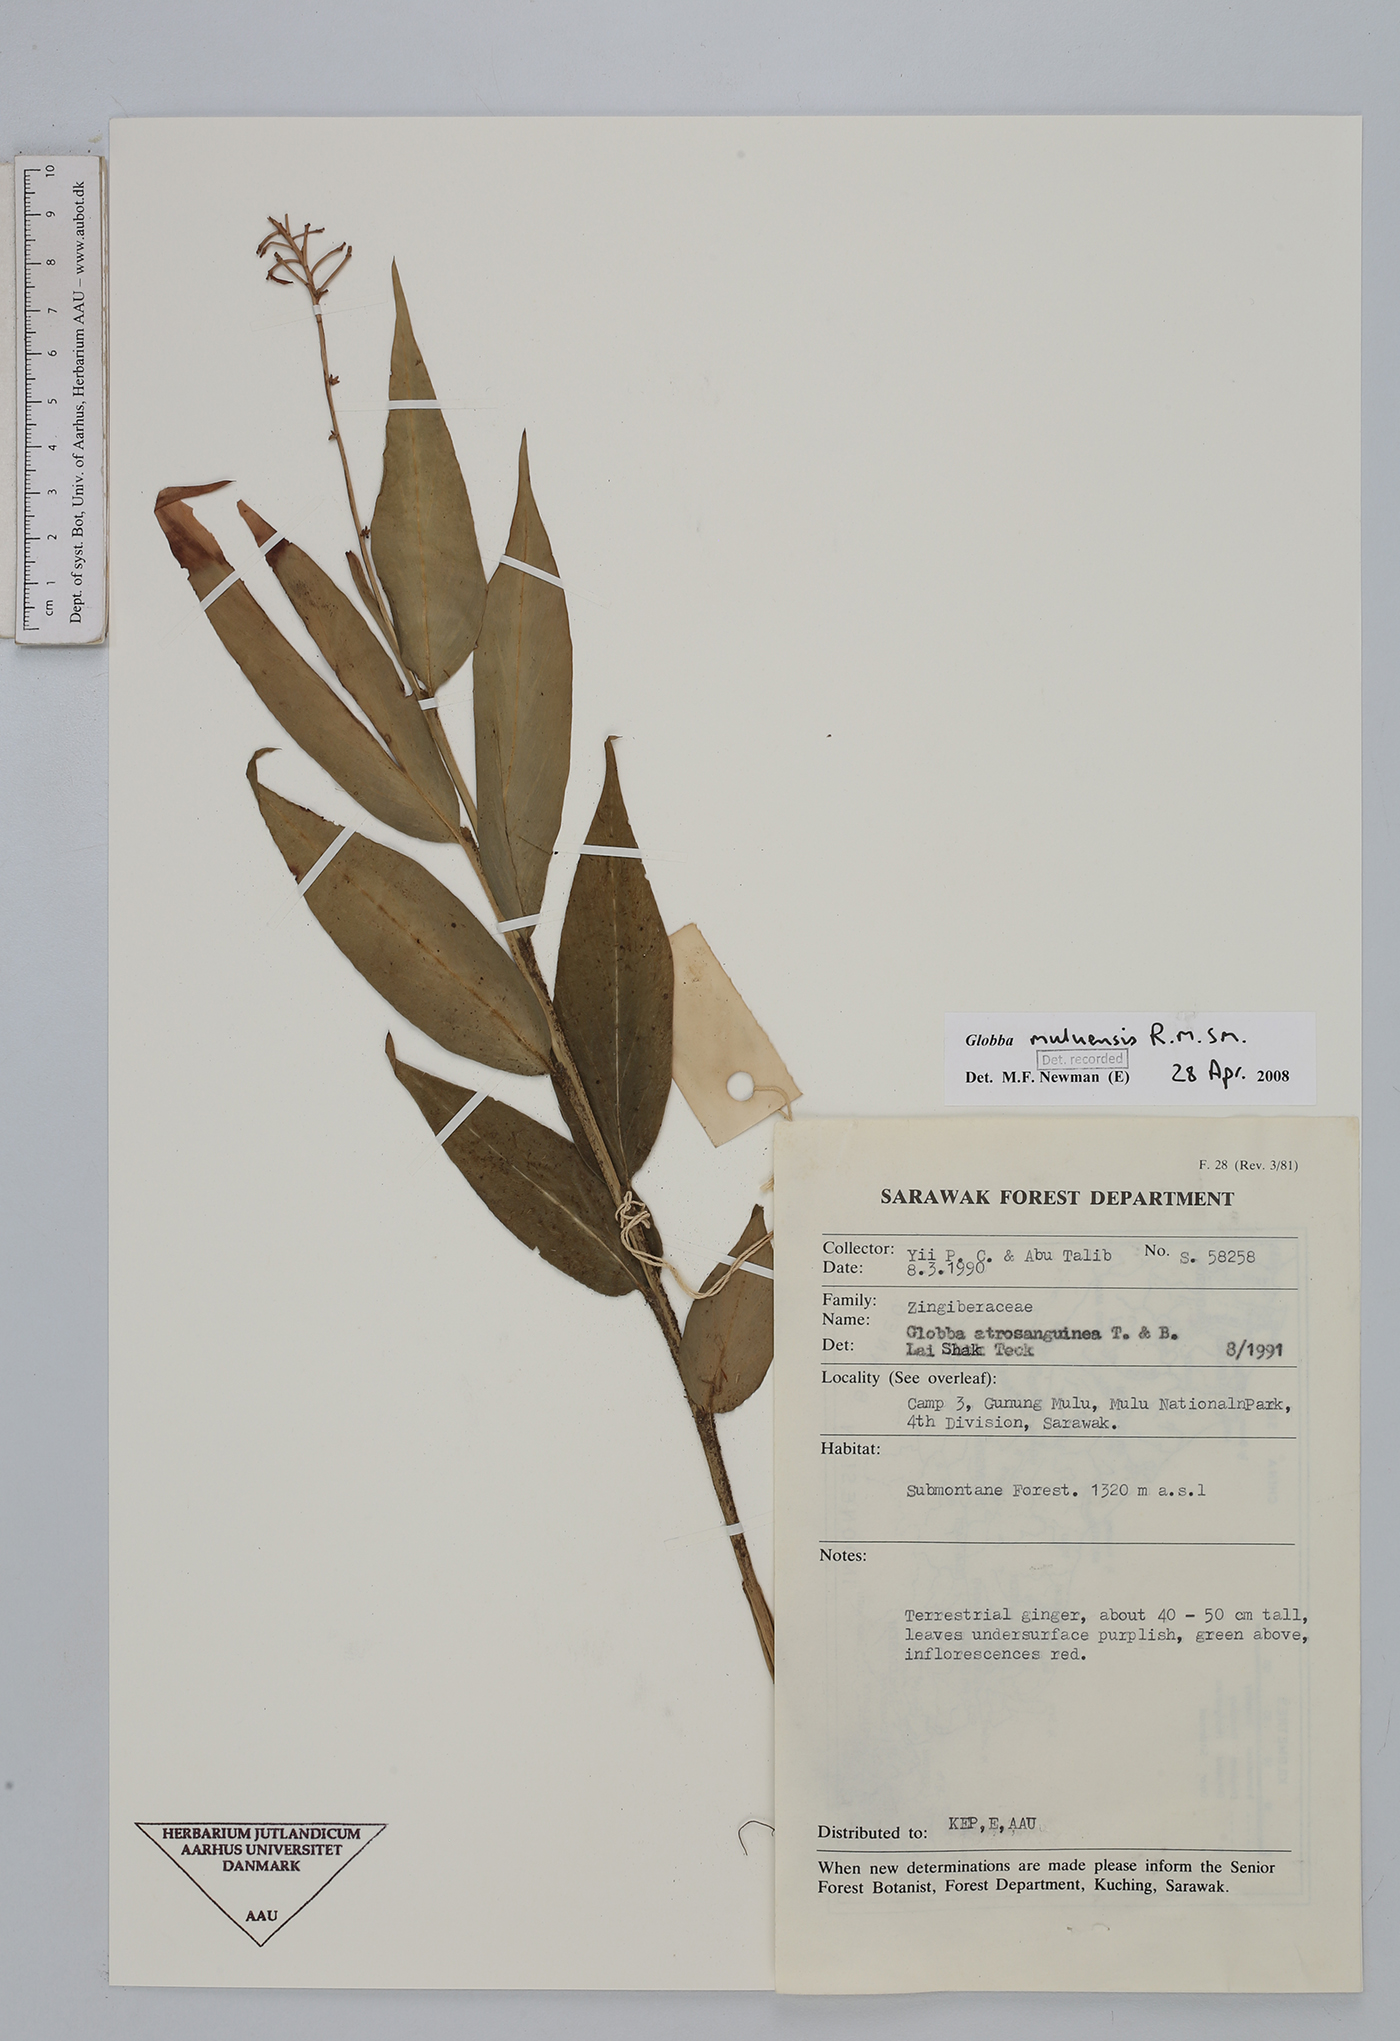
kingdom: Plantae
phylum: Tracheophyta
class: Liliopsida
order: Zingiberales
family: Zingiberaceae
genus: Globba
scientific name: Globba muluensis
